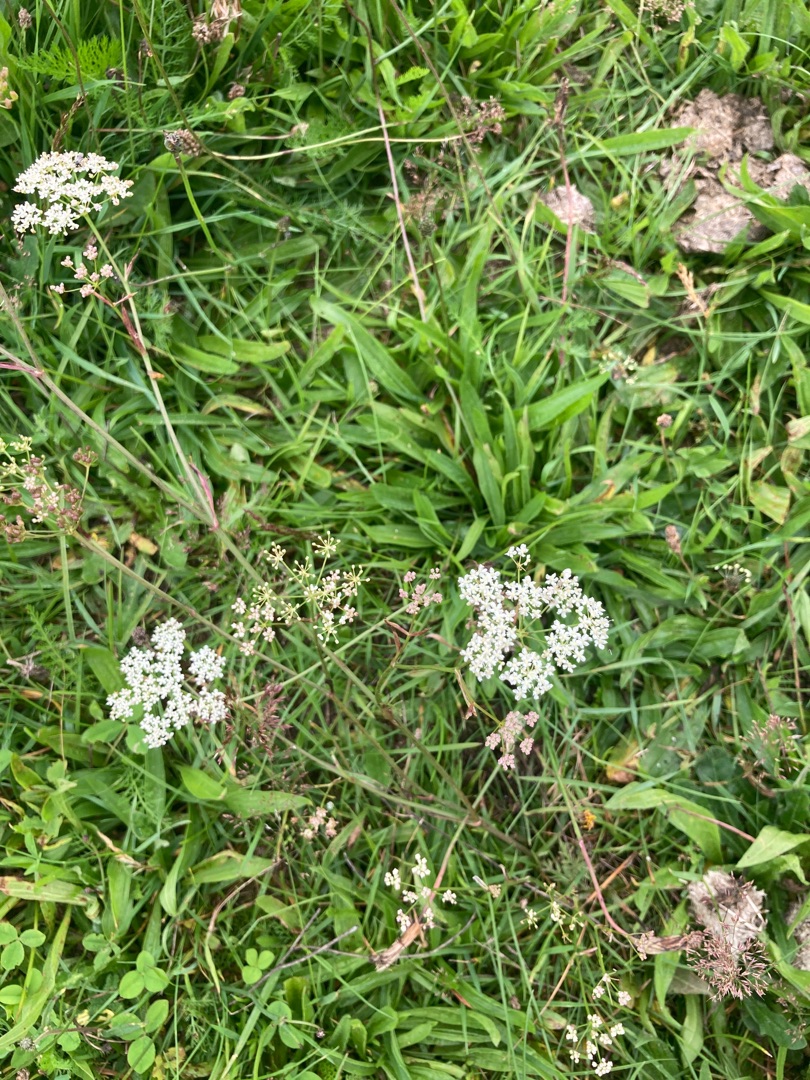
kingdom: Plantae
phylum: Tracheophyta
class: Magnoliopsida
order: Apiales
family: Apiaceae
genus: Pimpinella
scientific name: Pimpinella saxifraga
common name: Almindelig pimpinelle
